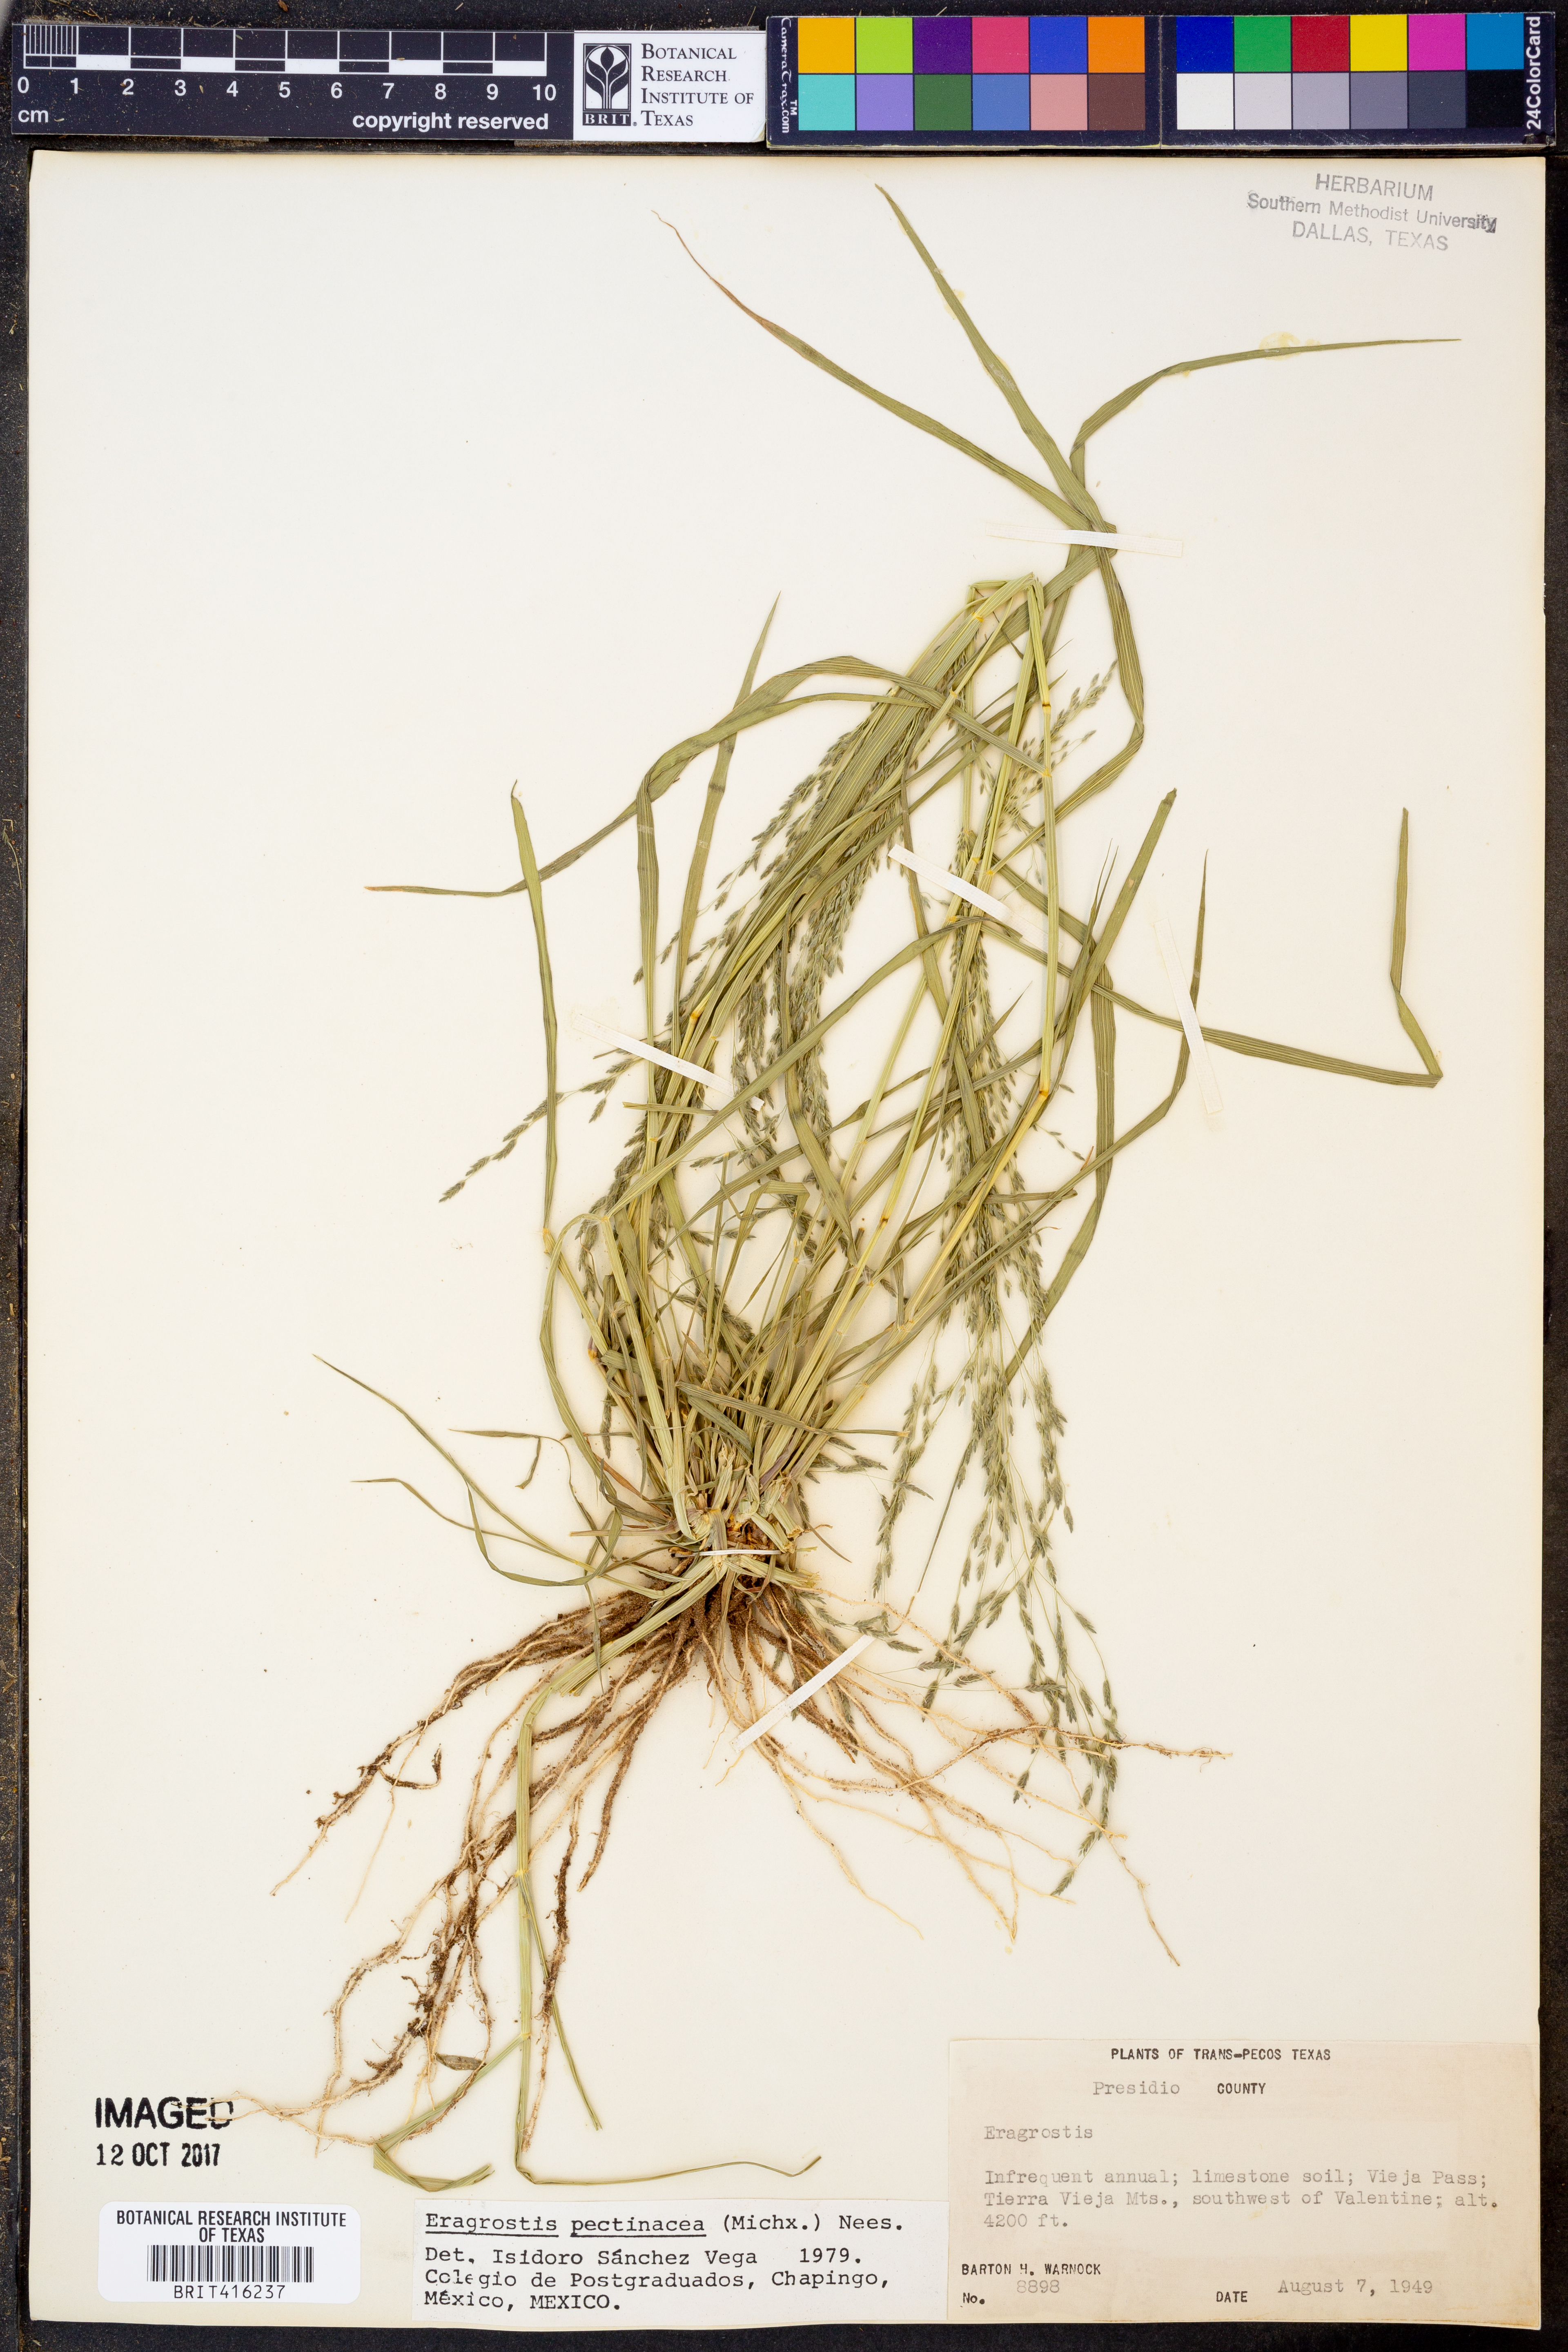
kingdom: Plantae
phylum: Tracheophyta
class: Liliopsida
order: Poales
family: Poaceae
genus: Eragrostis
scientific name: Eragrostis pectinacea
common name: Tufted lovegrass
